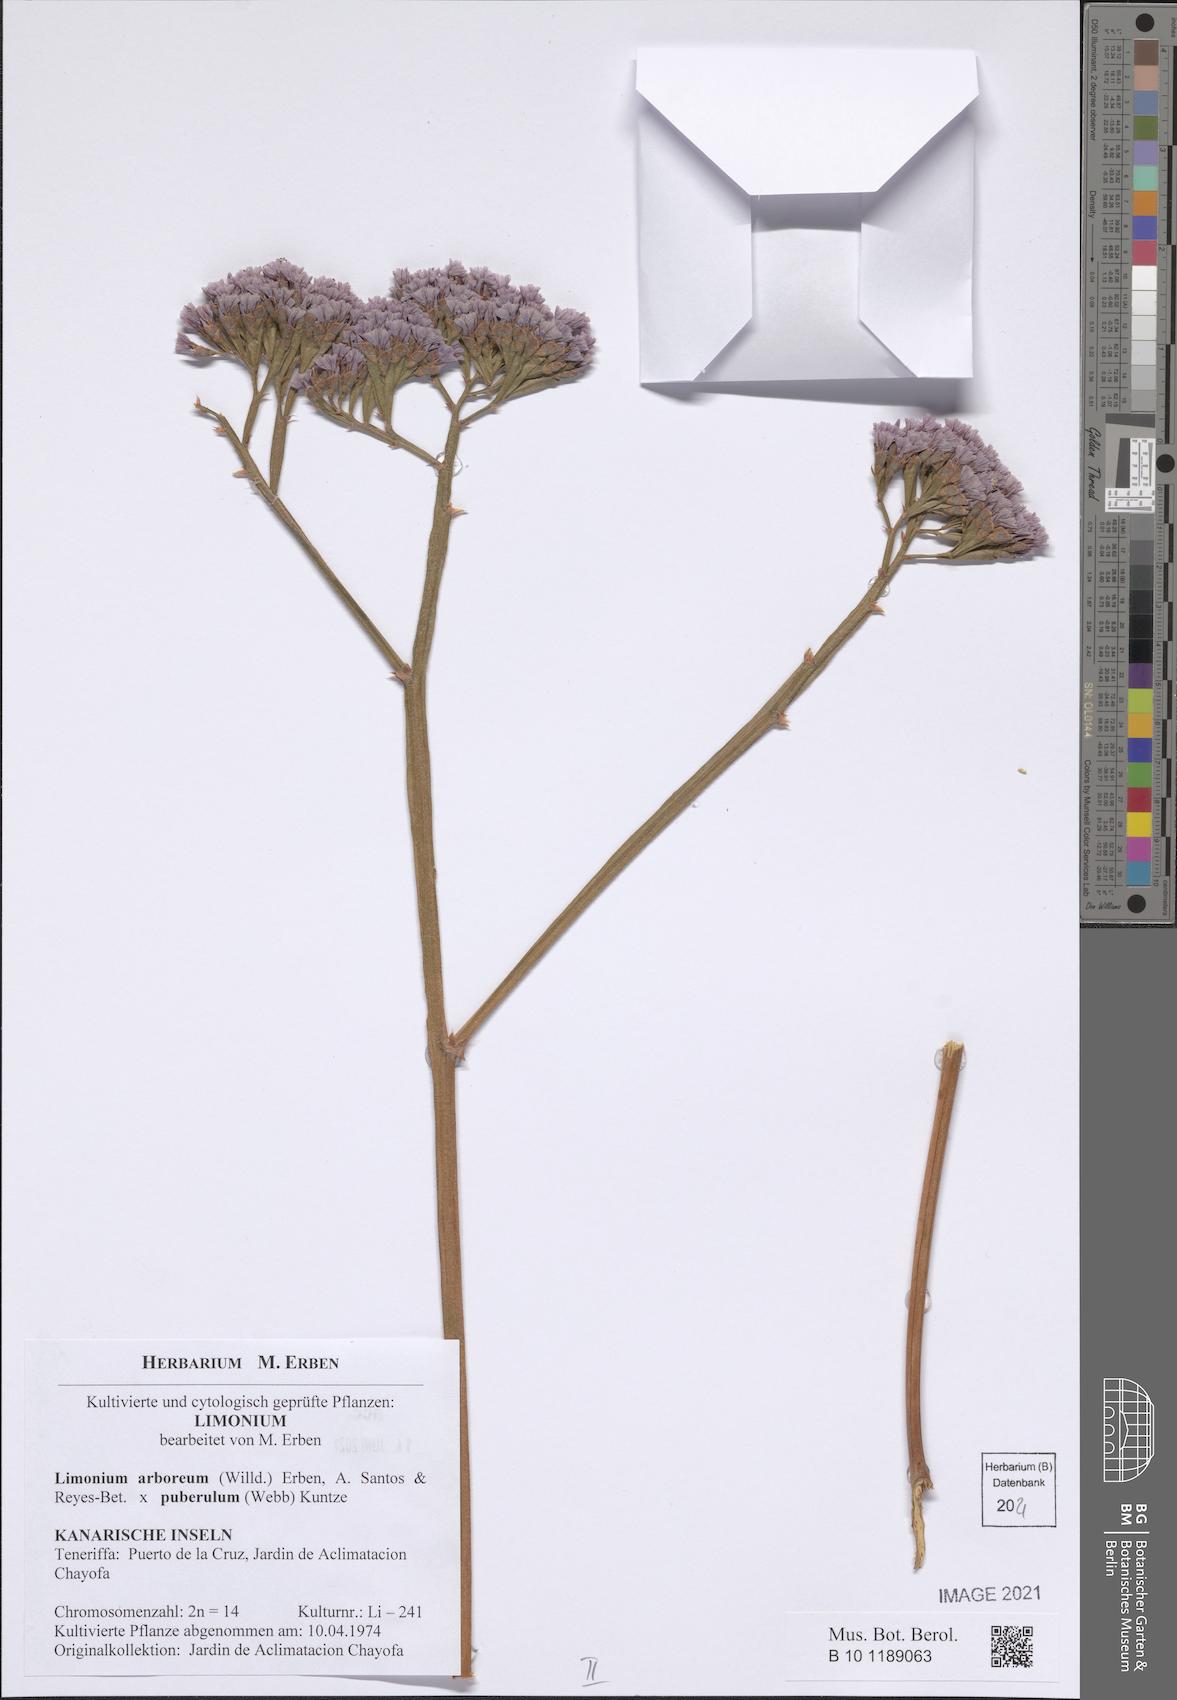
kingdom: Plantae
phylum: Tracheophyta
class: Magnoliopsida
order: Caryophyllales
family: Plumbaginaceae
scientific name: Plumbaginaceae
